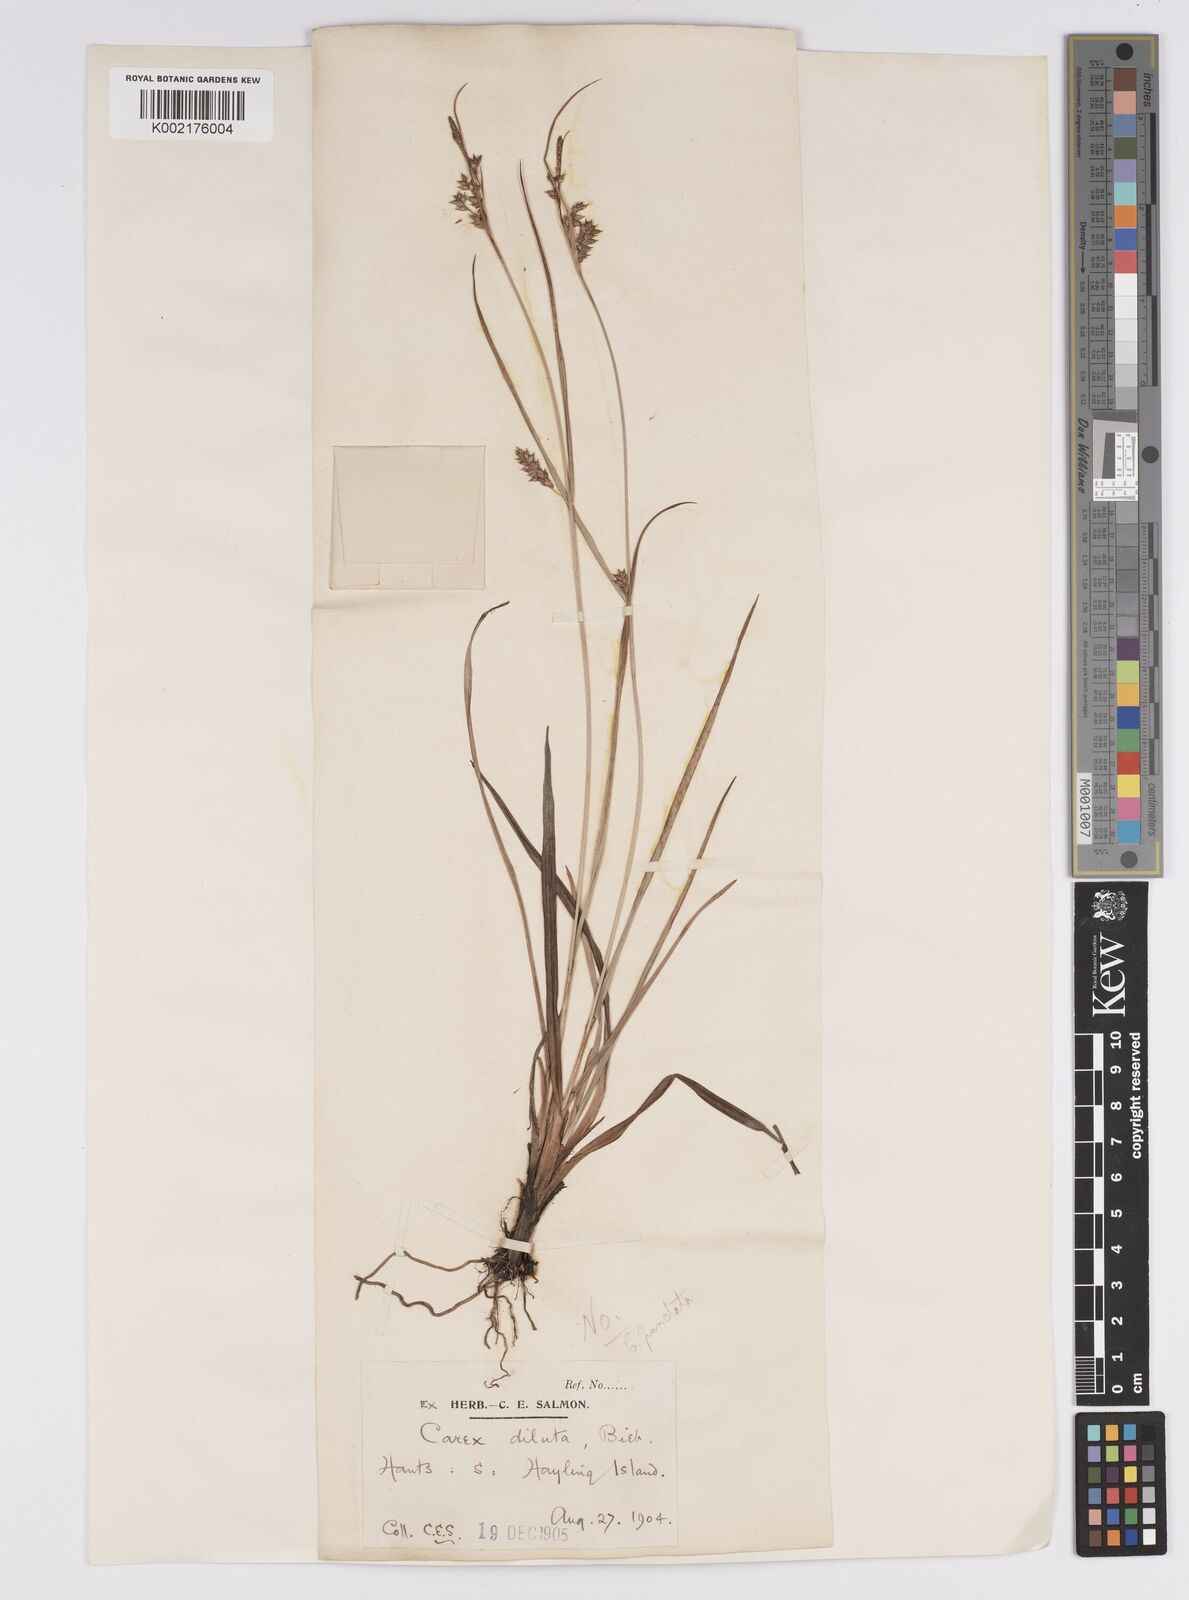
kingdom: Plantae
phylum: Tracheophyta
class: Liliopsida
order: Poales
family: Cyperaceae
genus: Carex
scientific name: Carex punctata
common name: Dotted sedge
